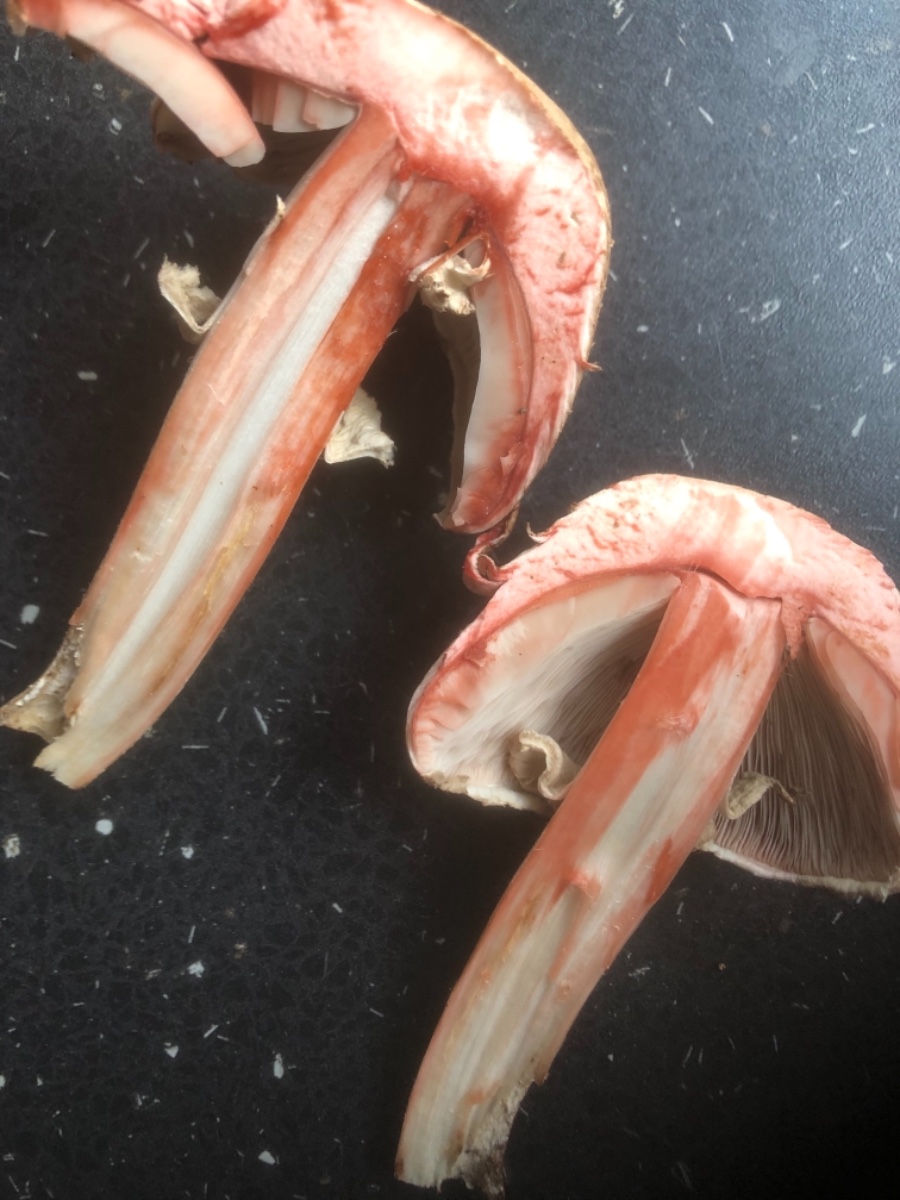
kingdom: Fungi
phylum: Basidiomycota
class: Agaricomycetes
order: Agaricales
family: Agaricaceae
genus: Agaricus
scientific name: Agaricus sylvaticus
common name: lille blod-champignon
